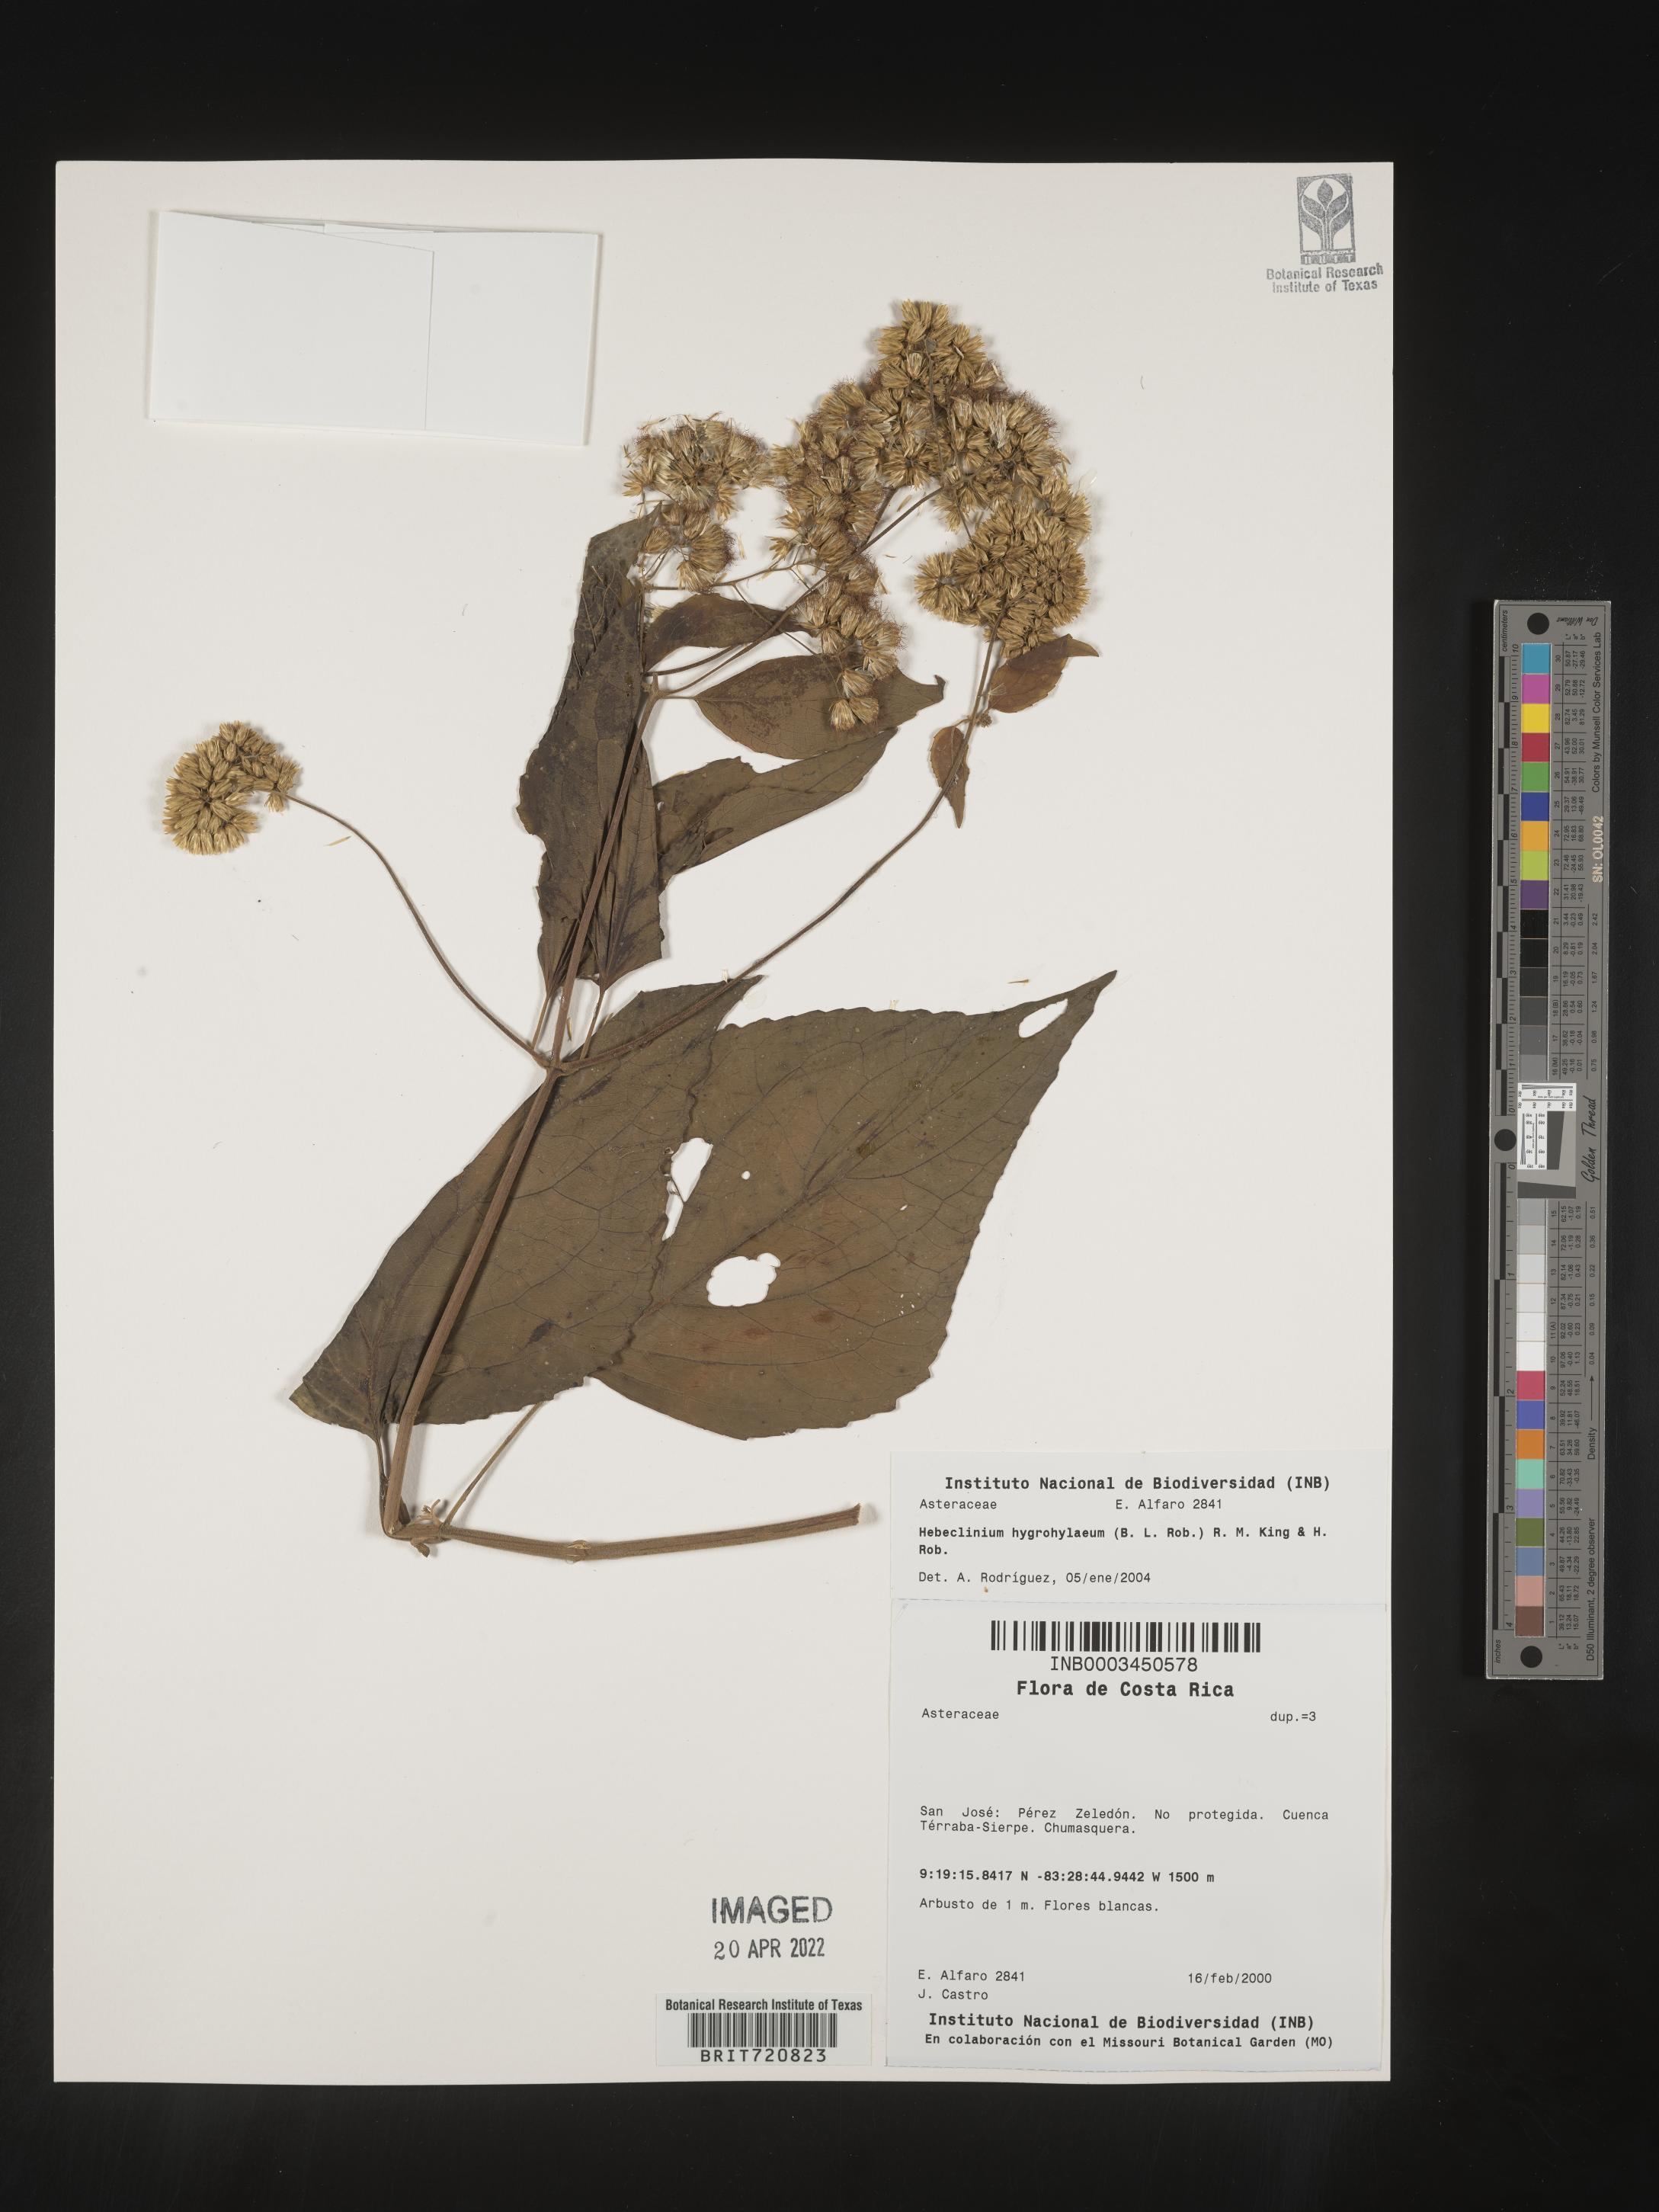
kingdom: Plantae
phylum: Tracheophyta
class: Magnoliopsida
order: Asterales
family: Asteraceae
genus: Hebeclinium
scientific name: Hebeclinium
